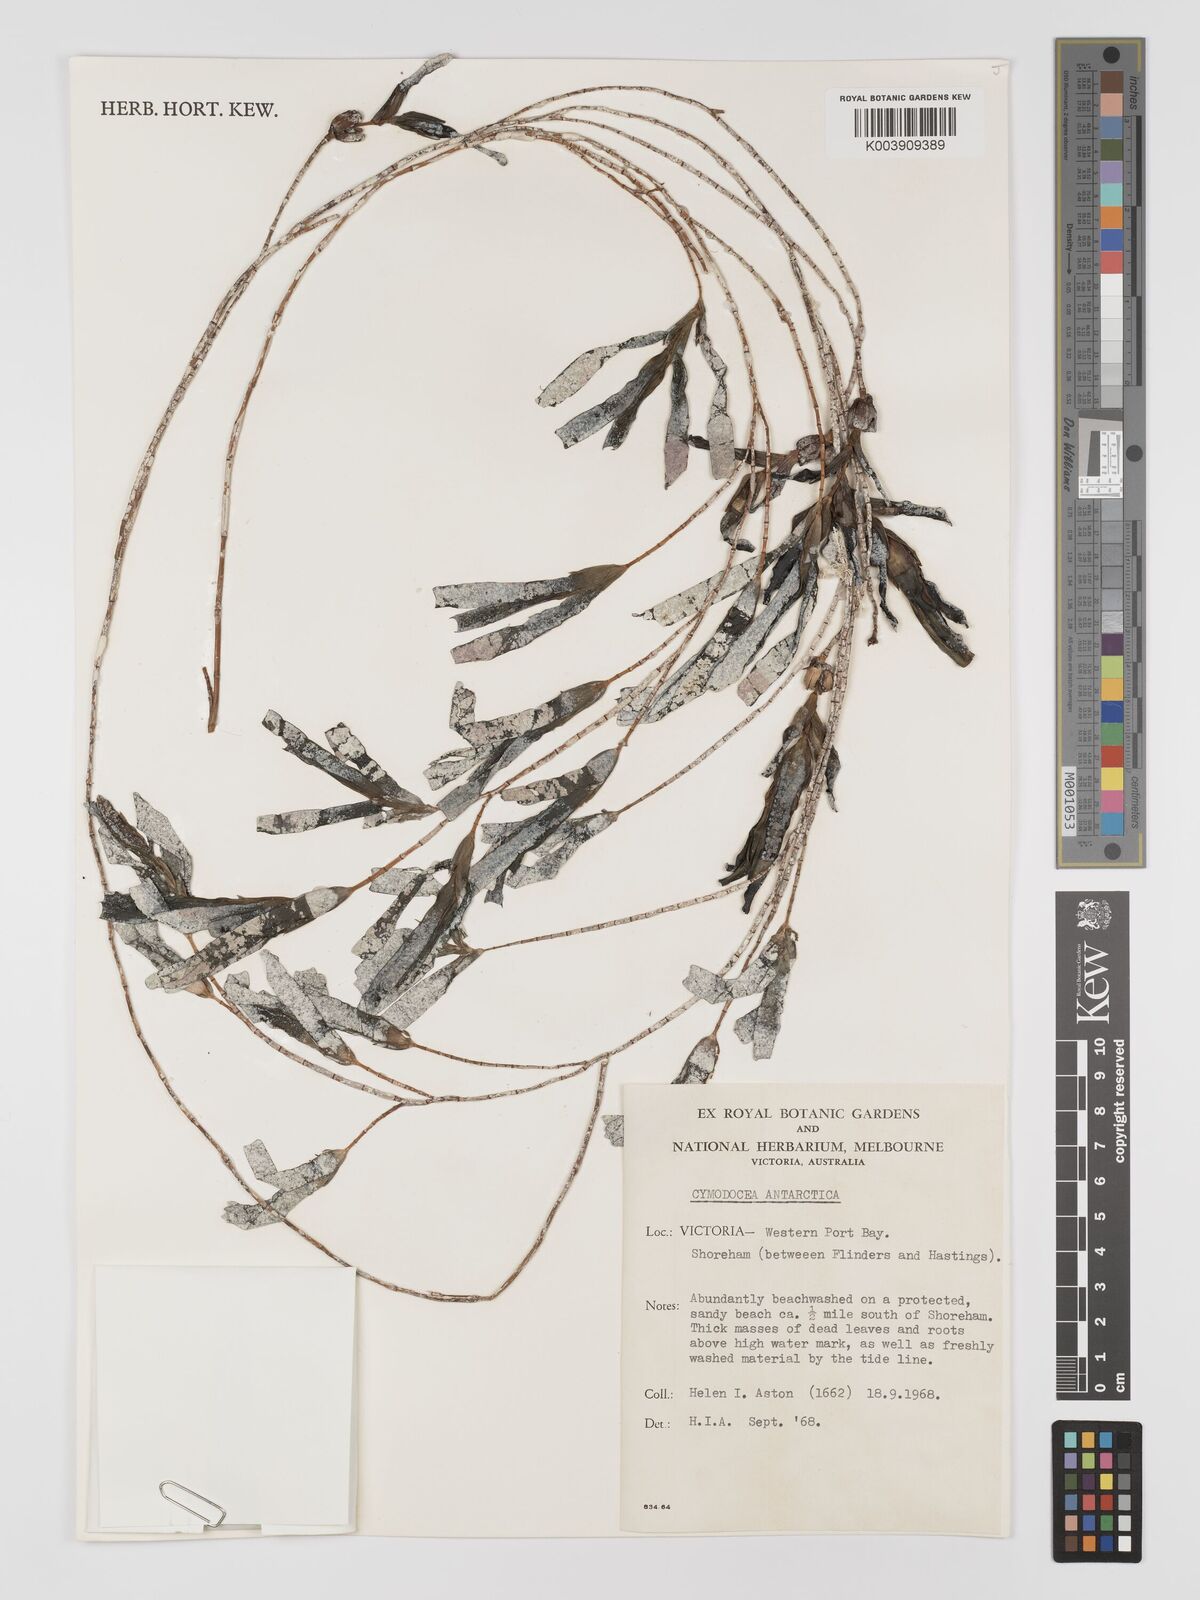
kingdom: Plantae
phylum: Tracheophyta
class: Liliopsida
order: Alismatales
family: Cymodoceaceae
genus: Amphibolis
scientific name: Amphibolis antarctica
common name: Species code: aa
